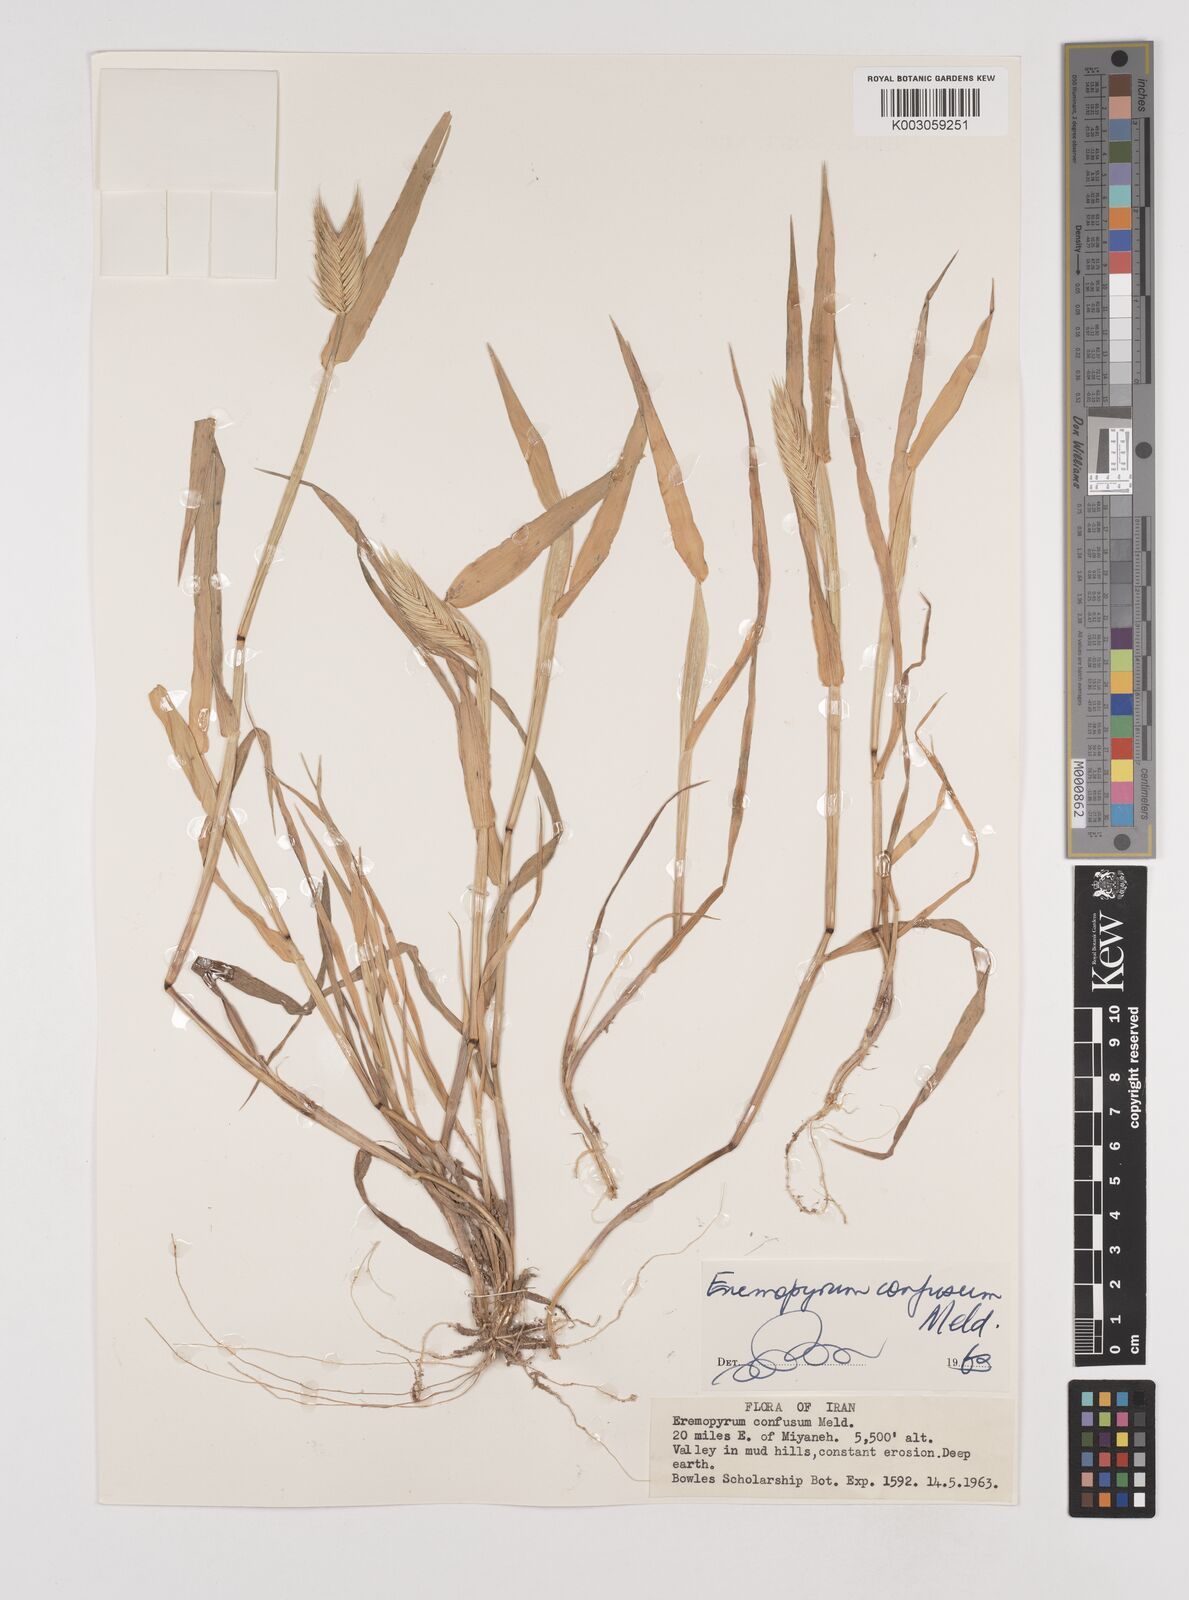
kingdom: Plantae
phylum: Tracheophyta
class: Liliopsida
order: Poales
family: Poaceae
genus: Eremopyrum
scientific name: Eremopyrum bonaepartis
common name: Tapertip false wheatgrass
